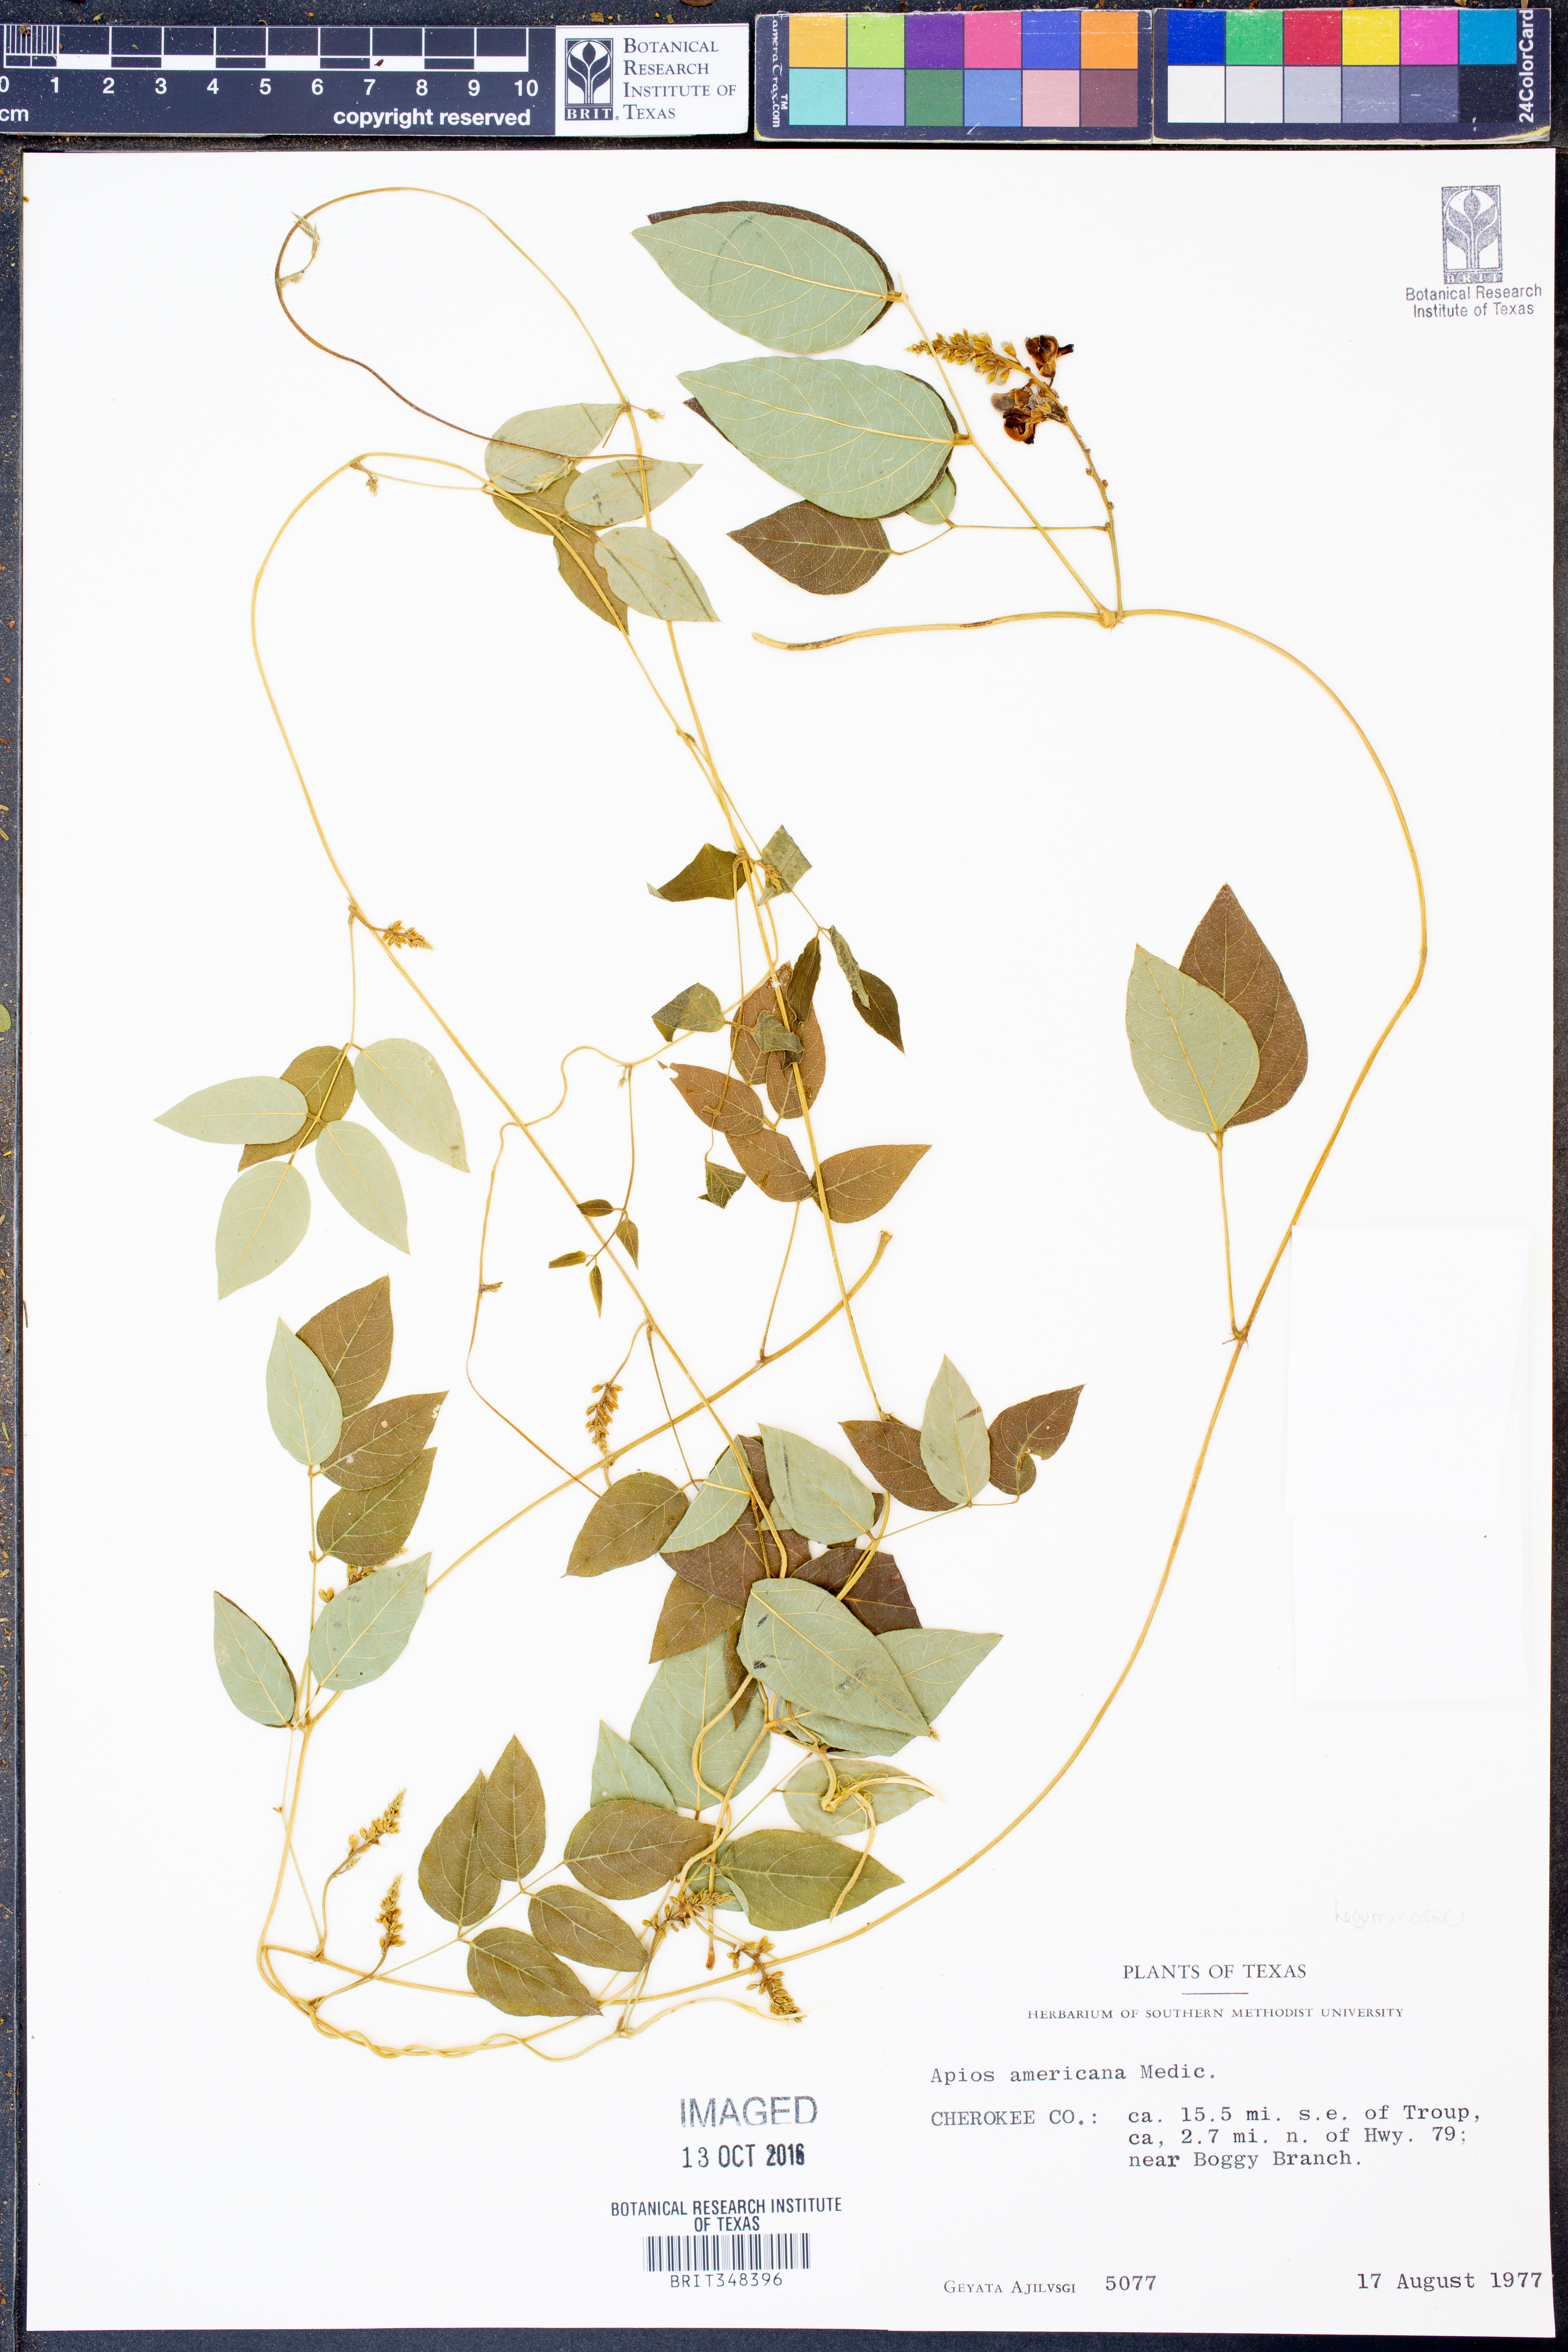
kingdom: Plantae
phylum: Tracheophyta
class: Magnoliopsida
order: Fabales
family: Fabaceae
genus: Apios
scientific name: Apios americana
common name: American potato-bean
